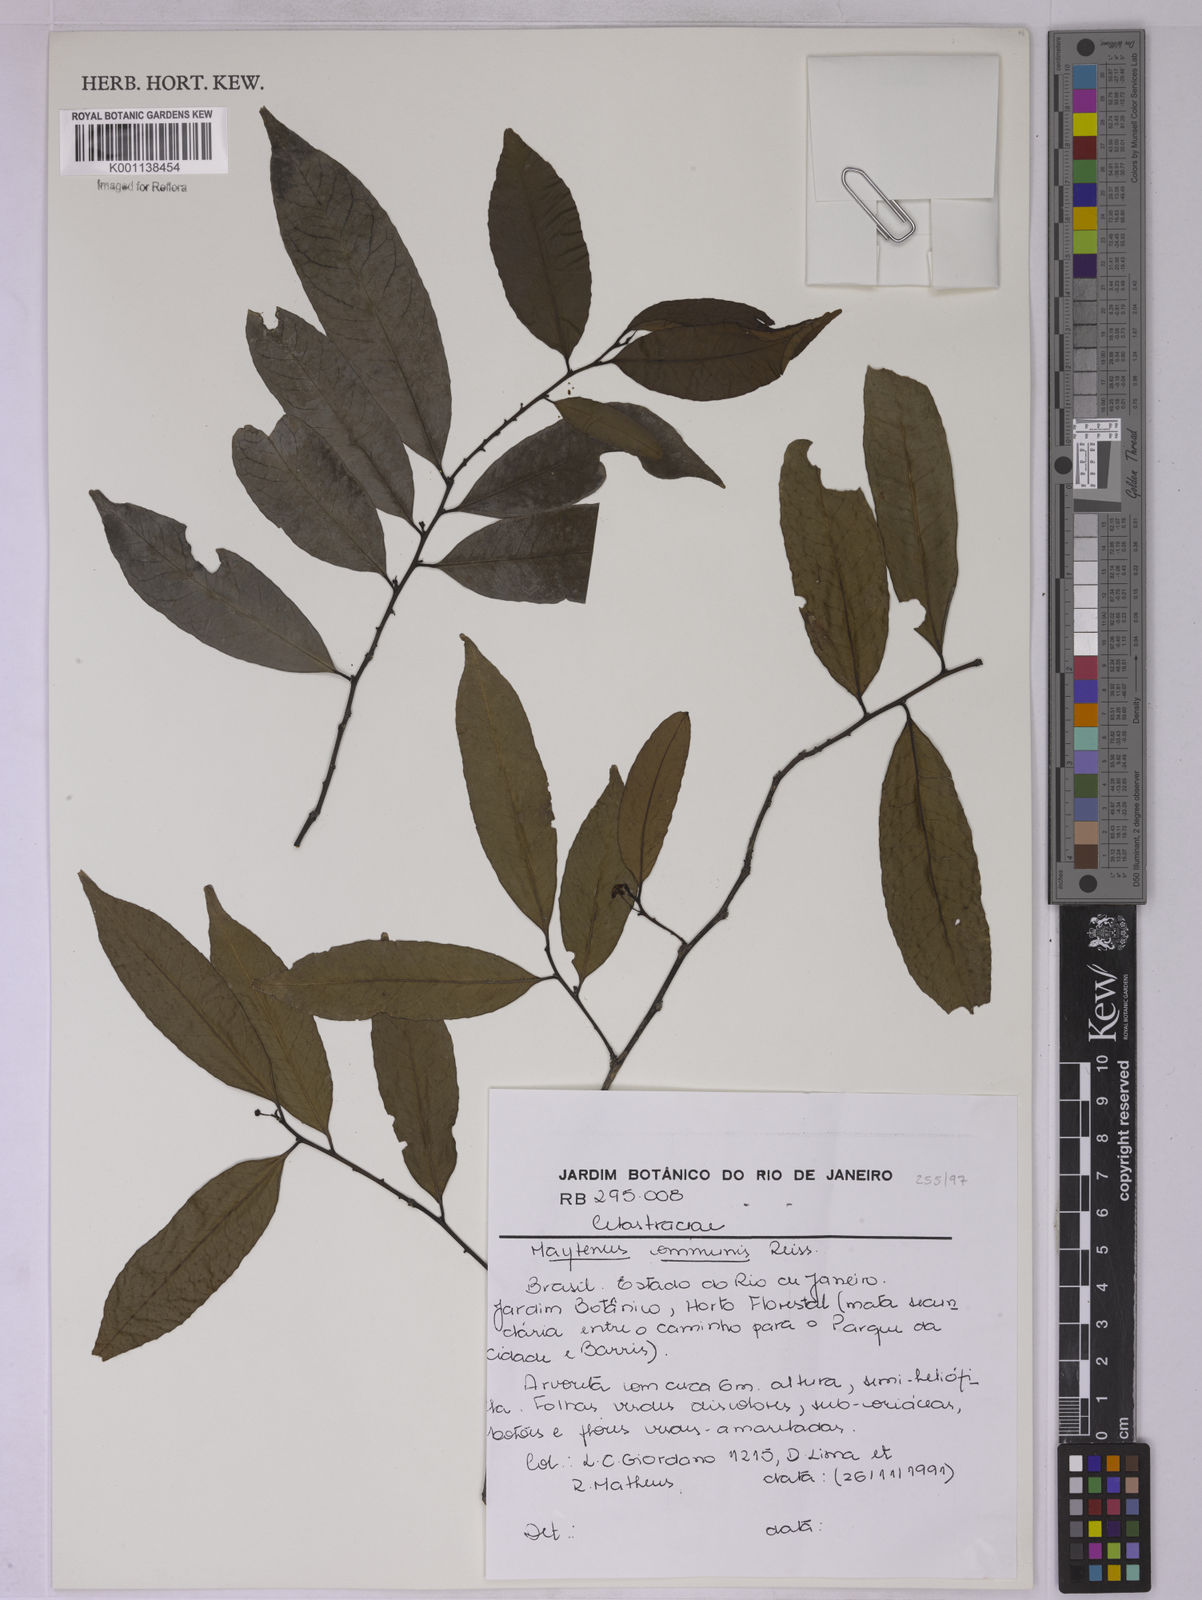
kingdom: Plantae
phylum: Tracheophyta
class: Magnoliopsida
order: Celastrales
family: Celastraceae
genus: Monteverdia
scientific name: Monteverdia communis
